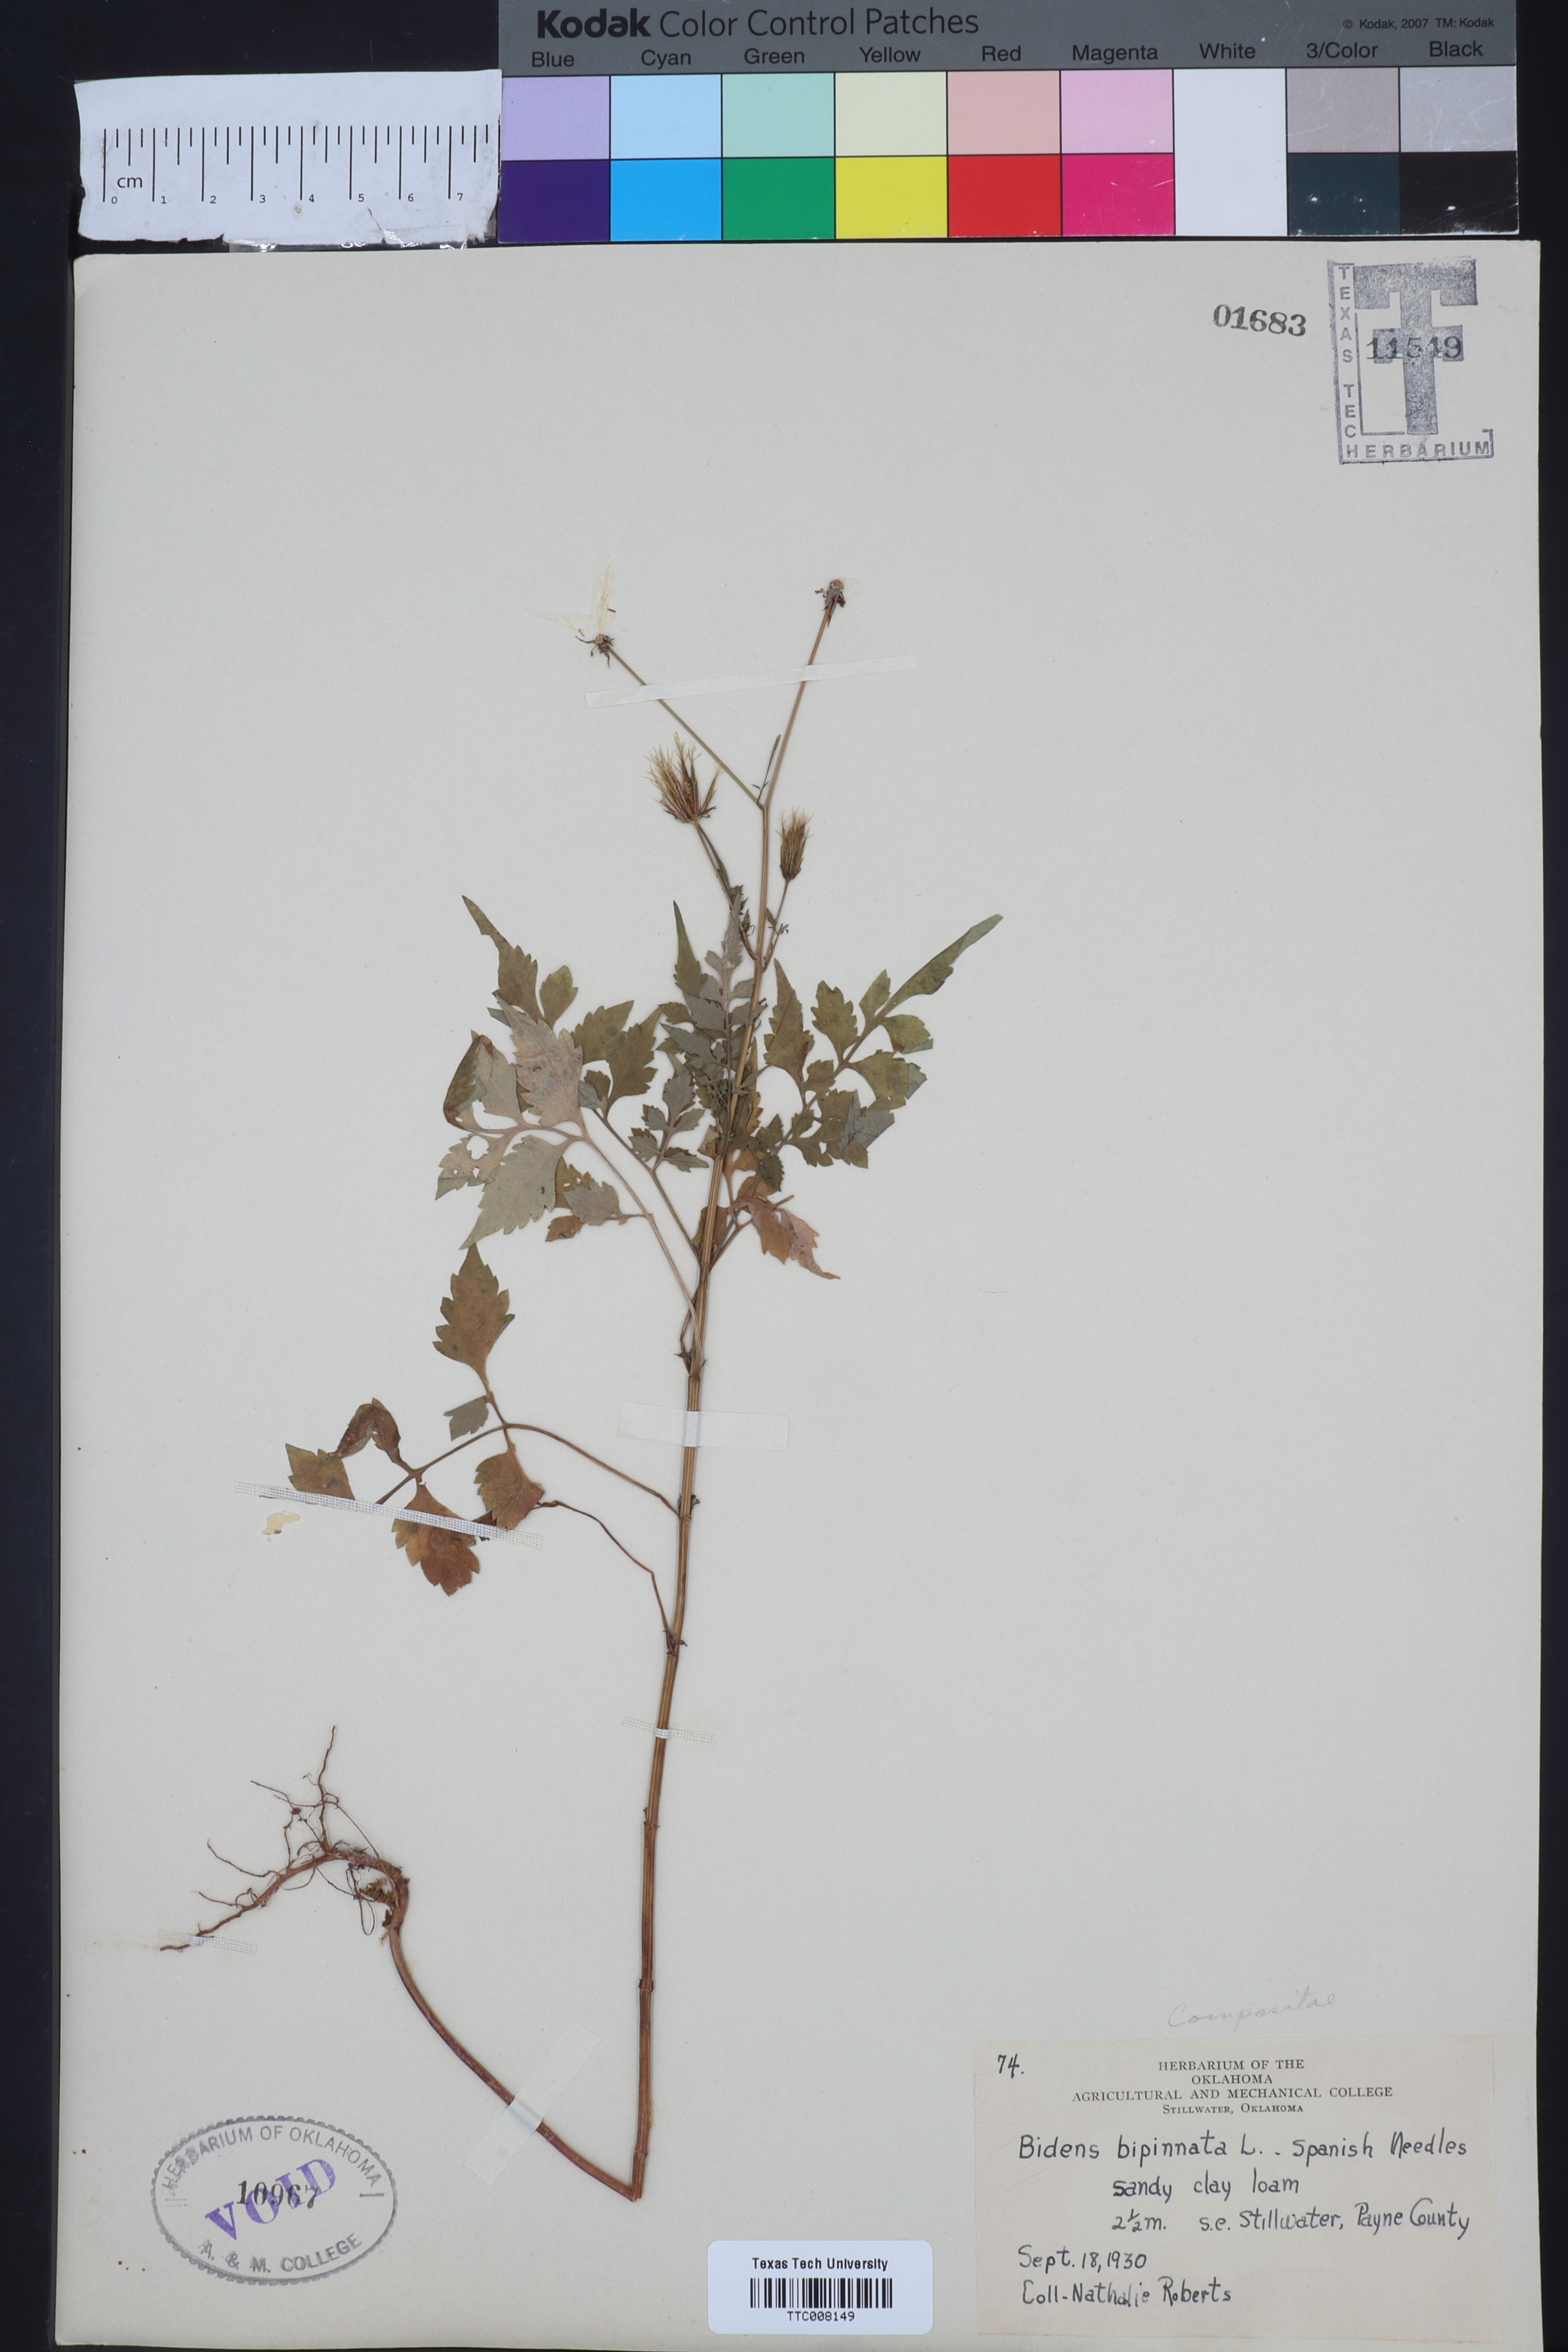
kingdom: Plantae
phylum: Tracheophyta
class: Magnoliopsida
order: Asterales
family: Asteraceae
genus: Bidens
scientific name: Bidens bipinnata
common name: Spanish-needles
